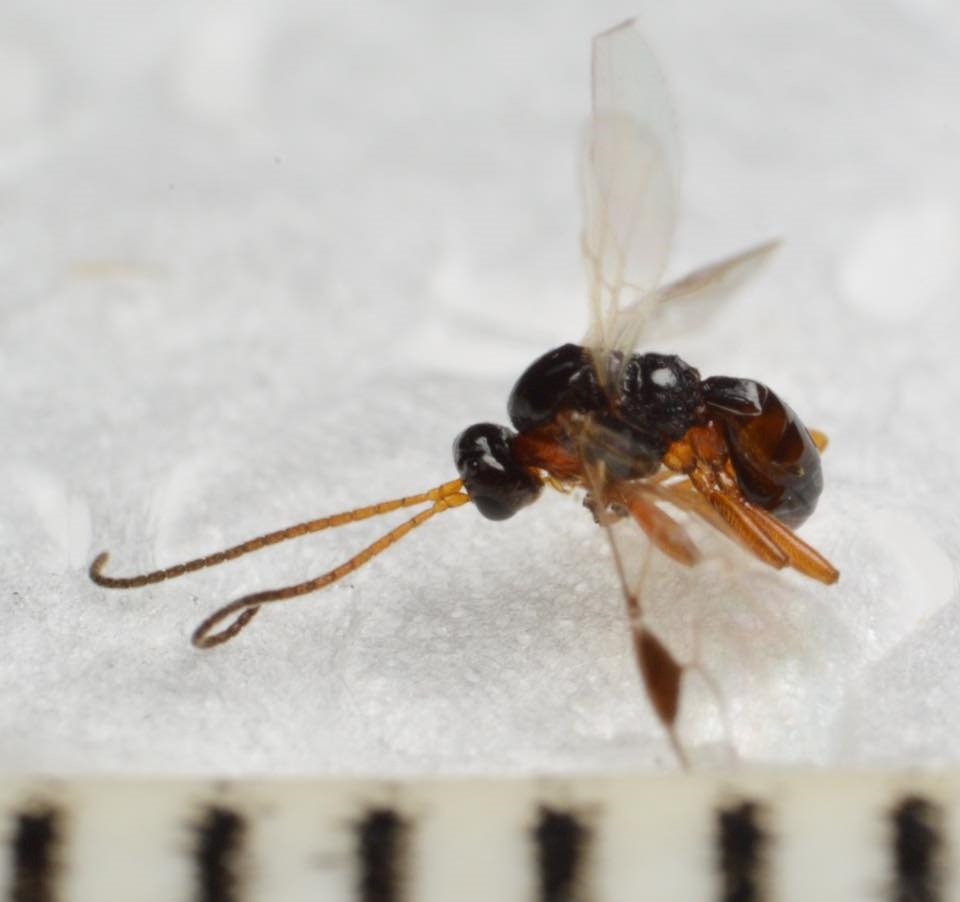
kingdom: Animalia
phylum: Arthropoda
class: Insecta
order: Hymenoptera
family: Braconidae
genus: Centistes
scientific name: Centistes delusorius
